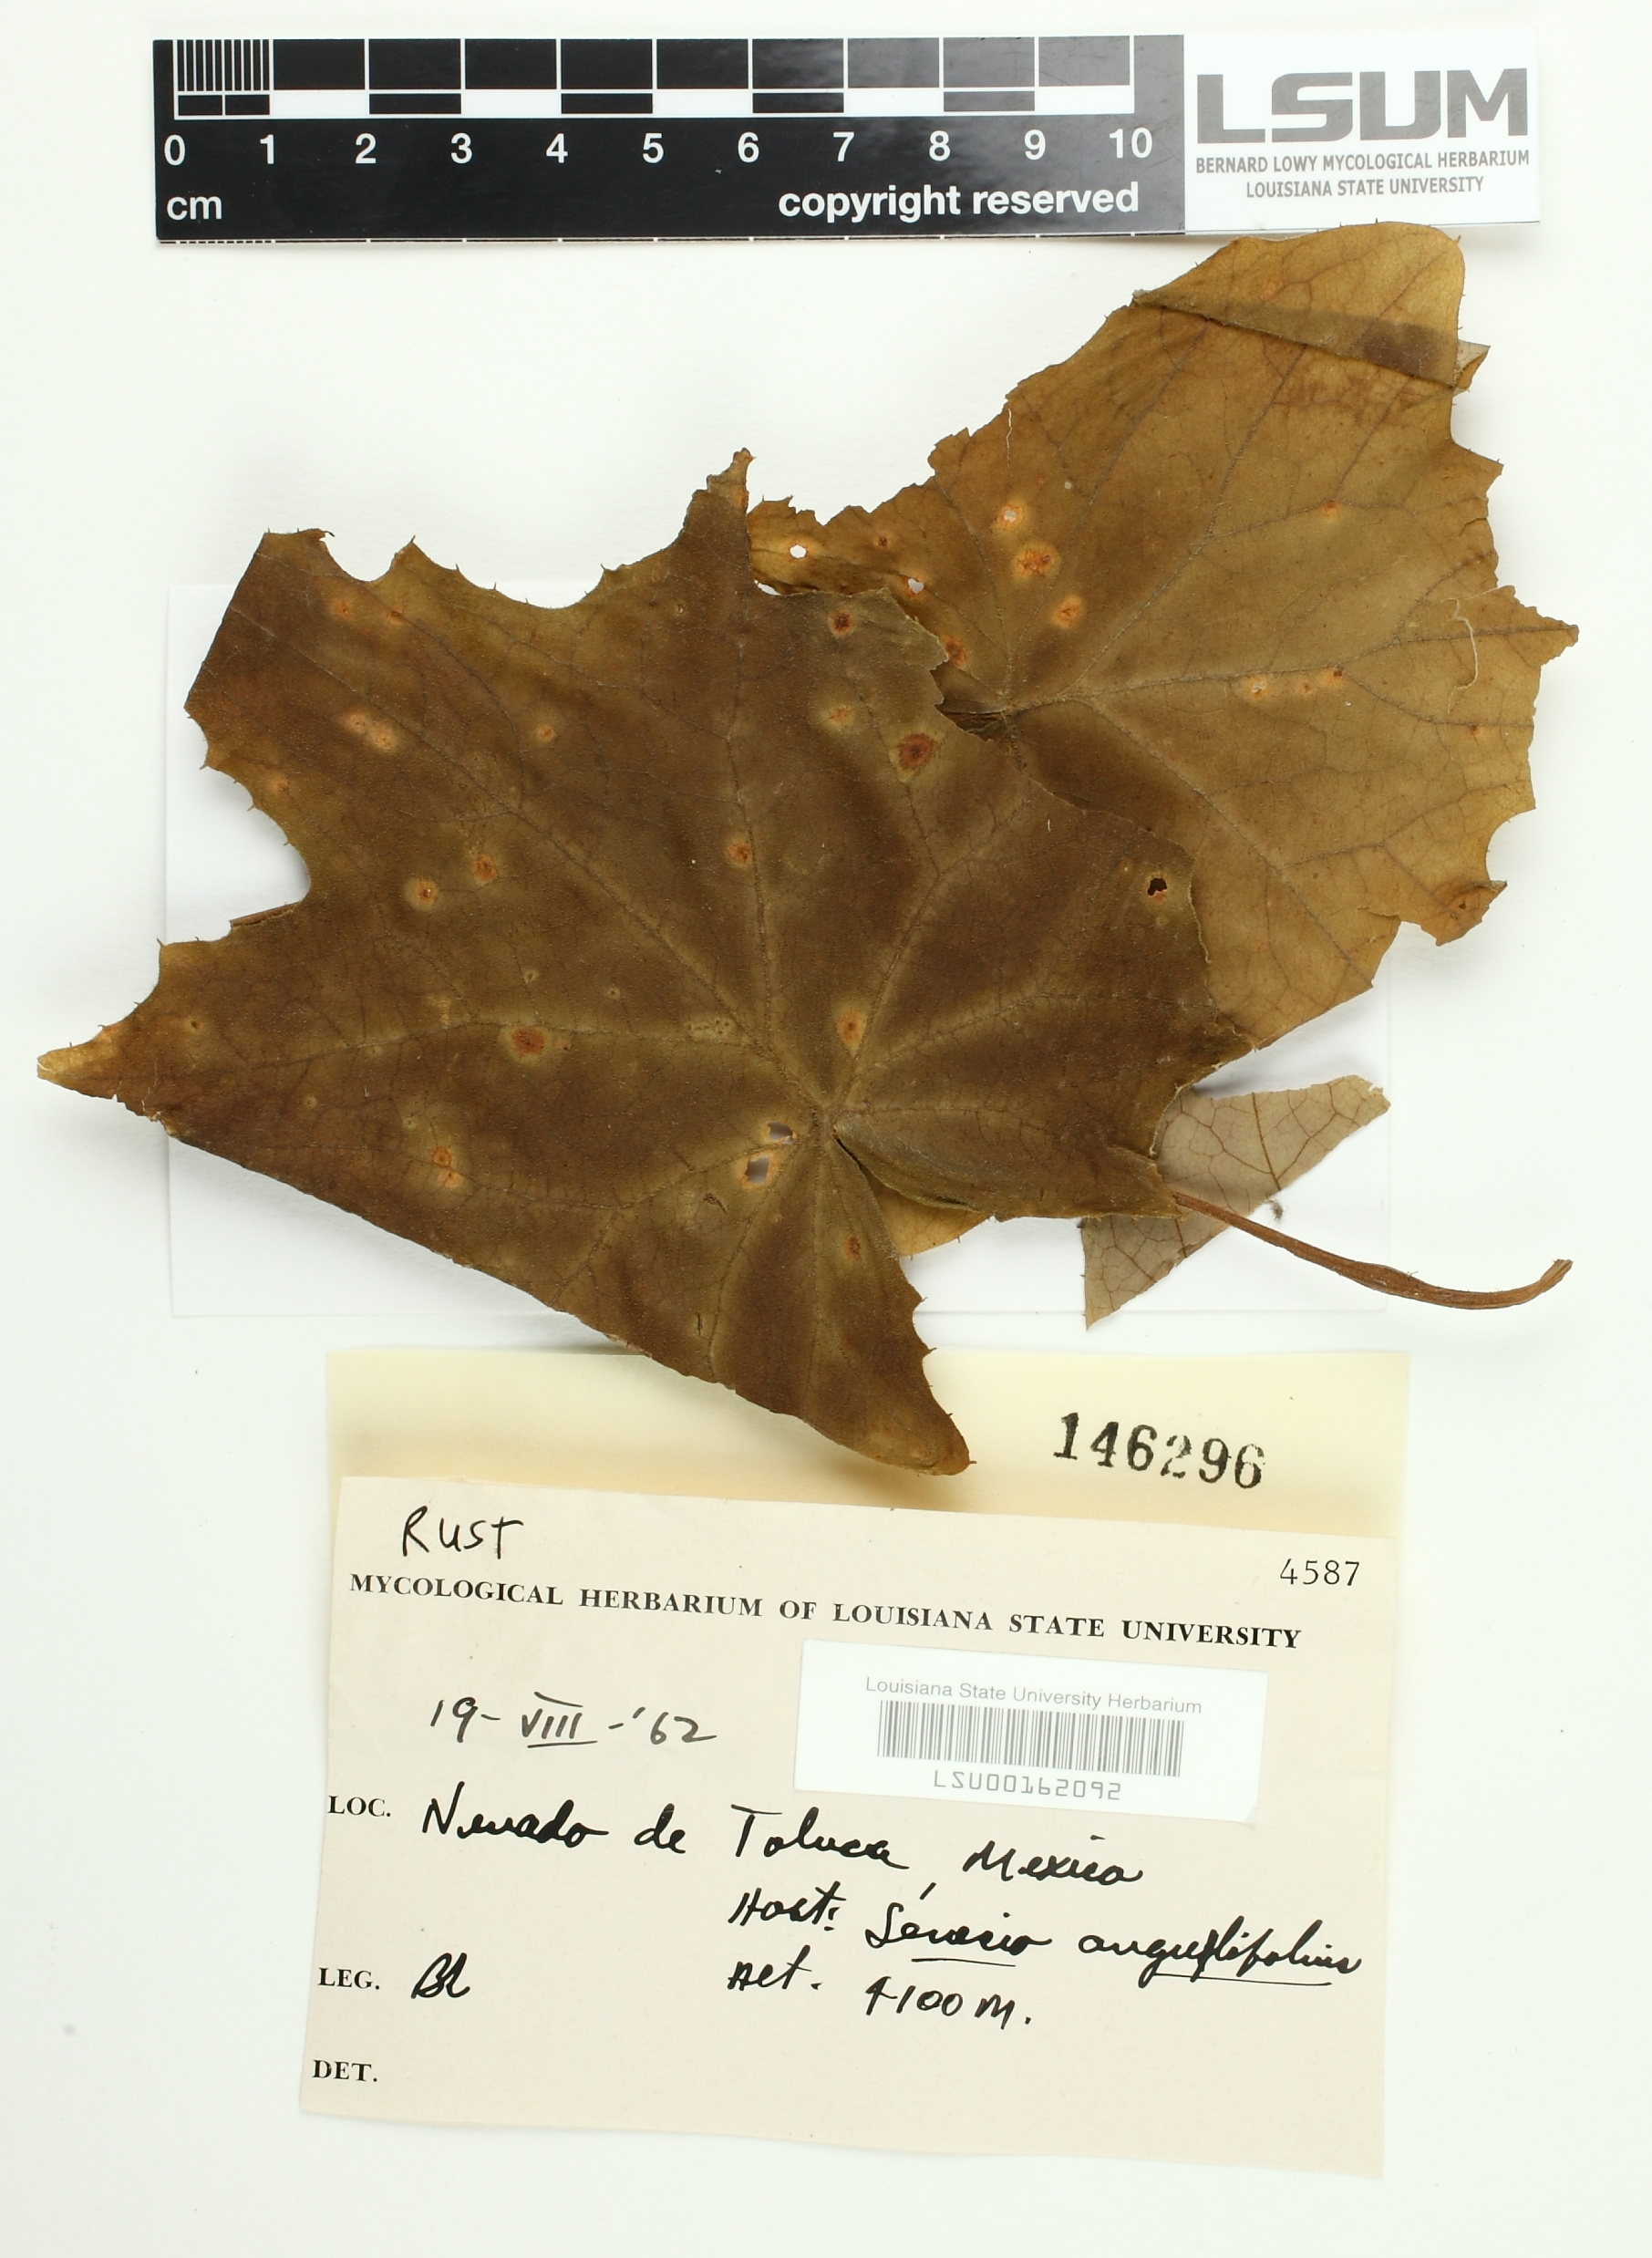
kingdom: Fungi
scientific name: Fungi
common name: Fungi
